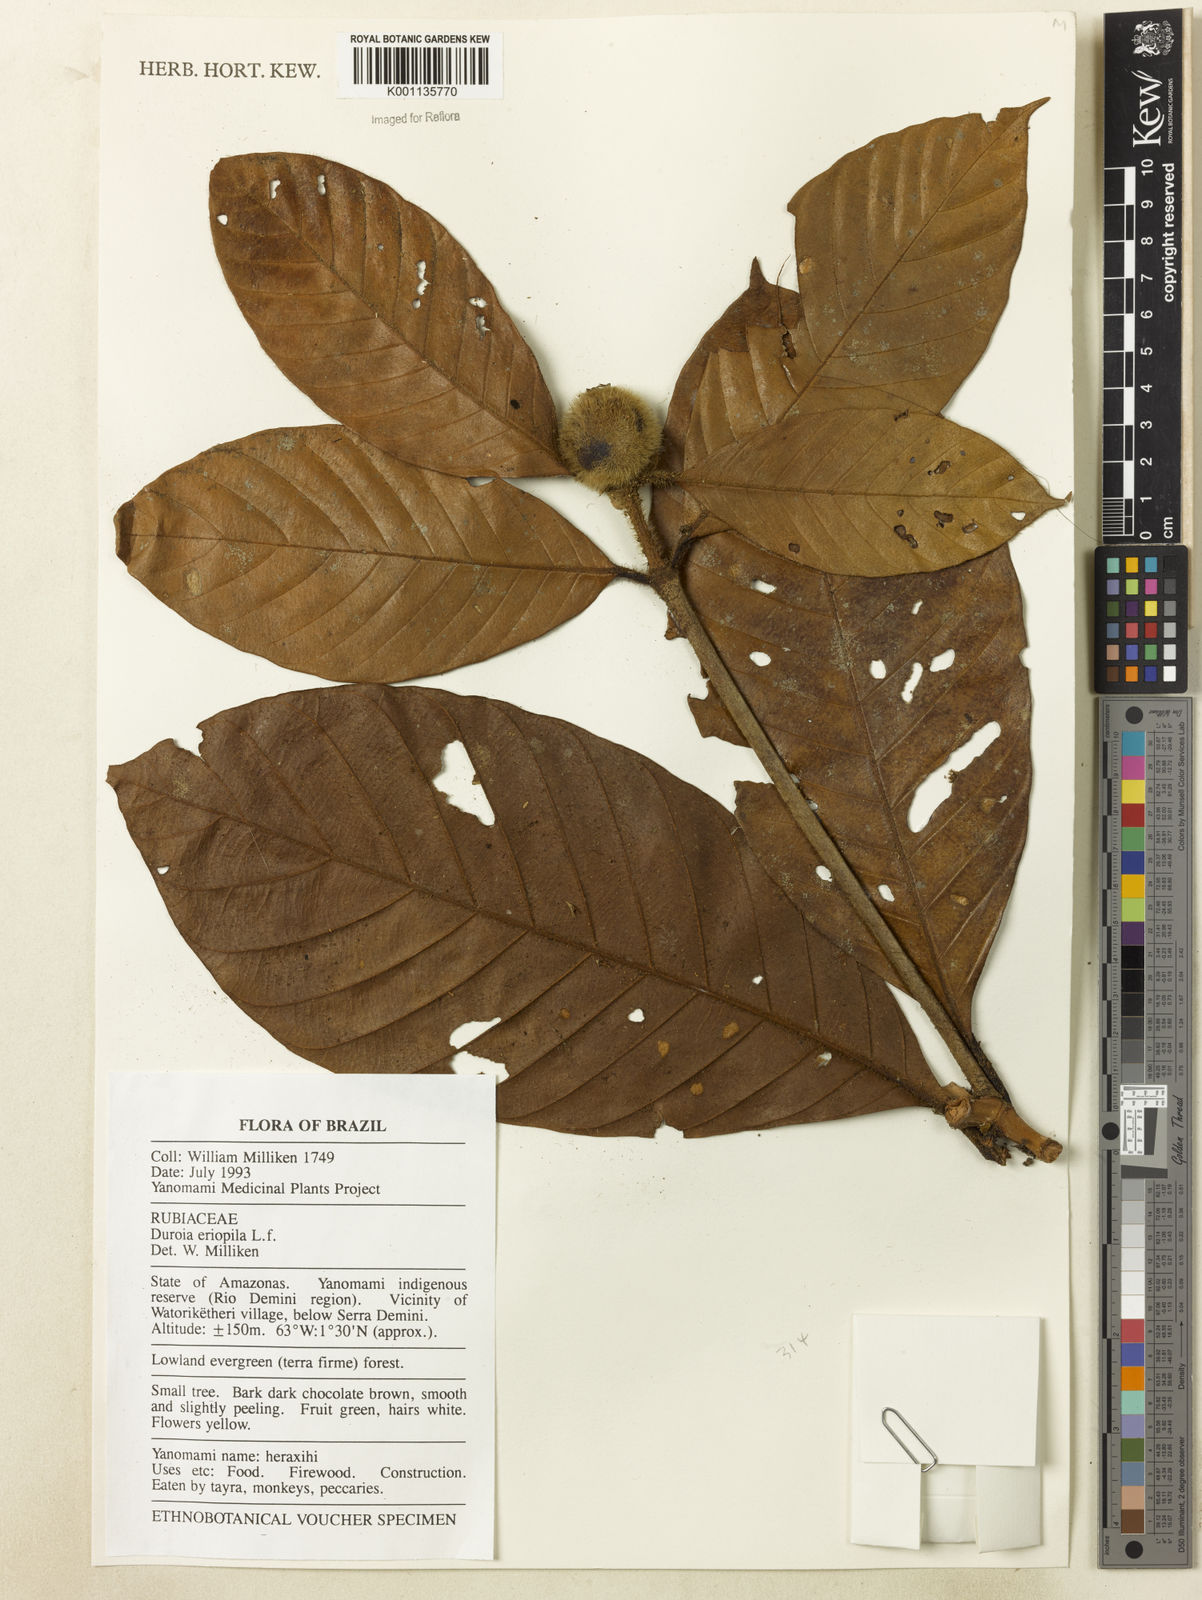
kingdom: Plantae
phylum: Tracheophyta
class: Magnoliopsida
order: Gentianales
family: Rubiaceae
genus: Duroia
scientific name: Duroia eriopila
